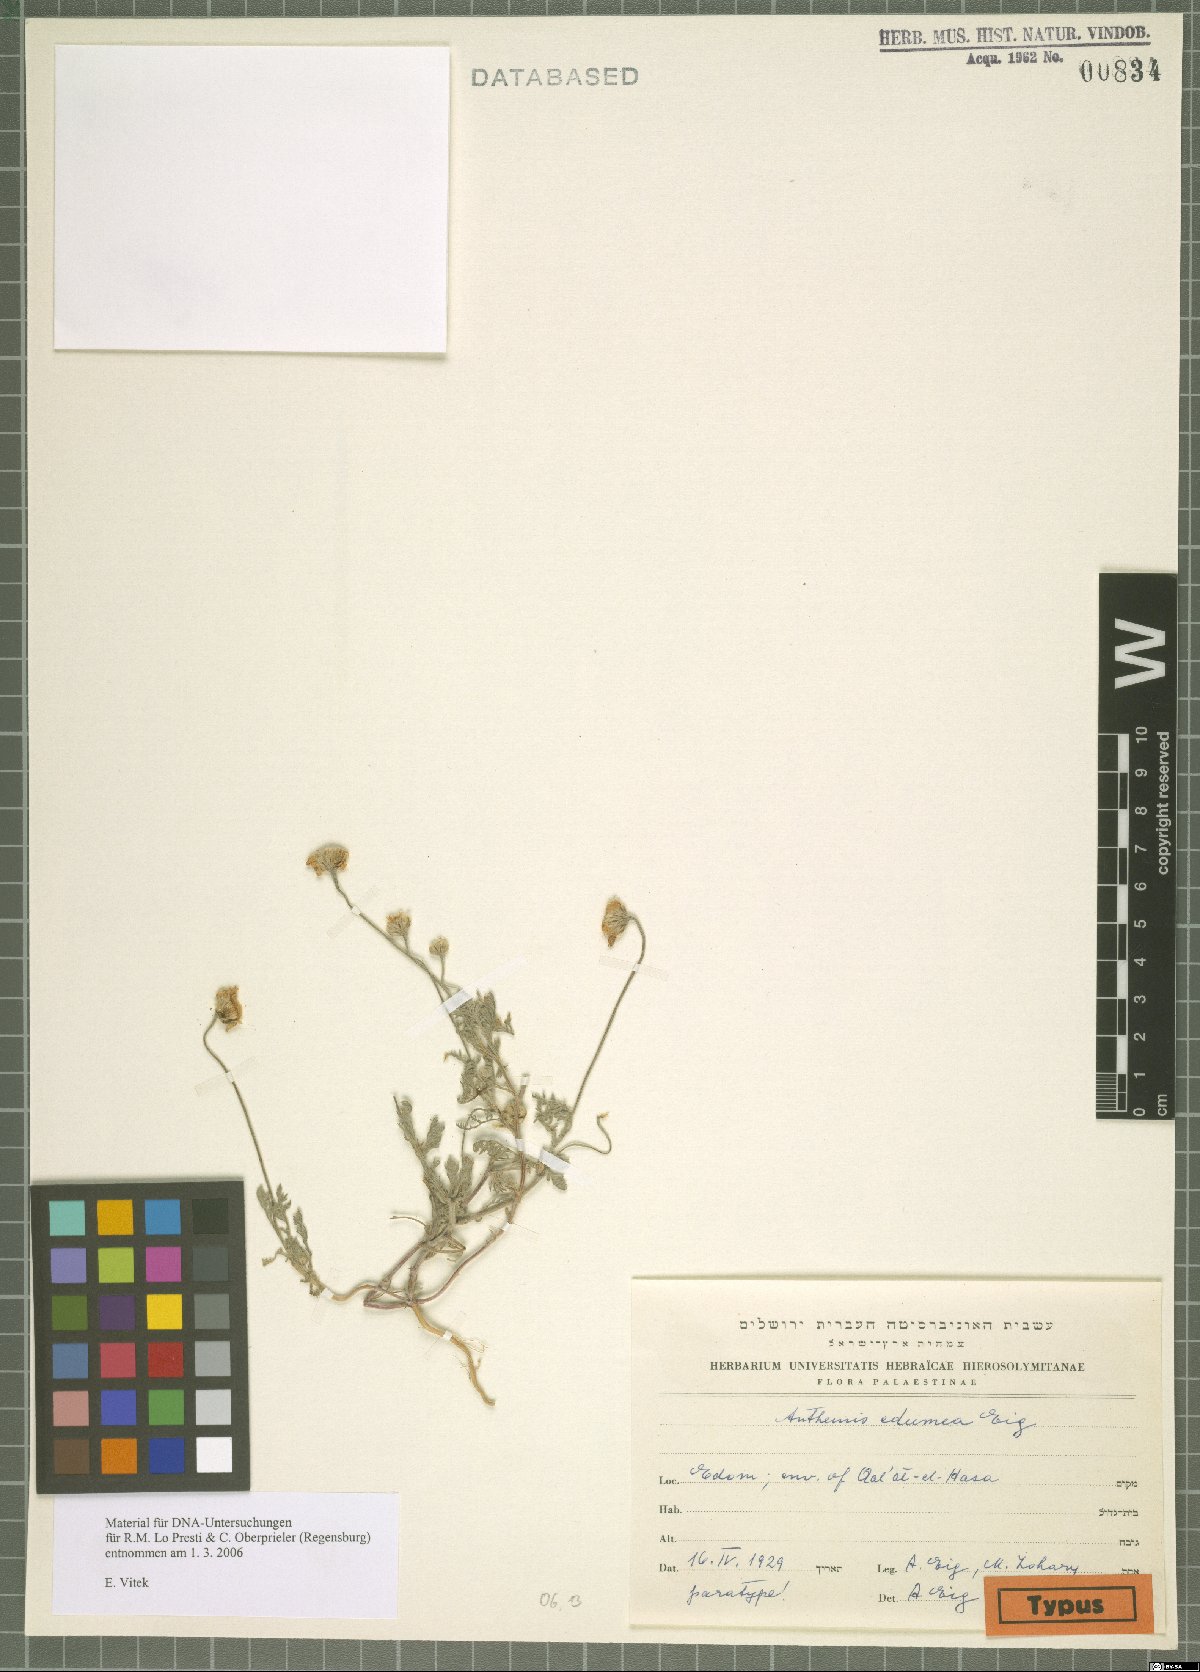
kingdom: Plantae
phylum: Tracheophyta
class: Magnoliopsida
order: Asterales
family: Asteraceae
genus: Anthemis
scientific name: Anthemis edumea
